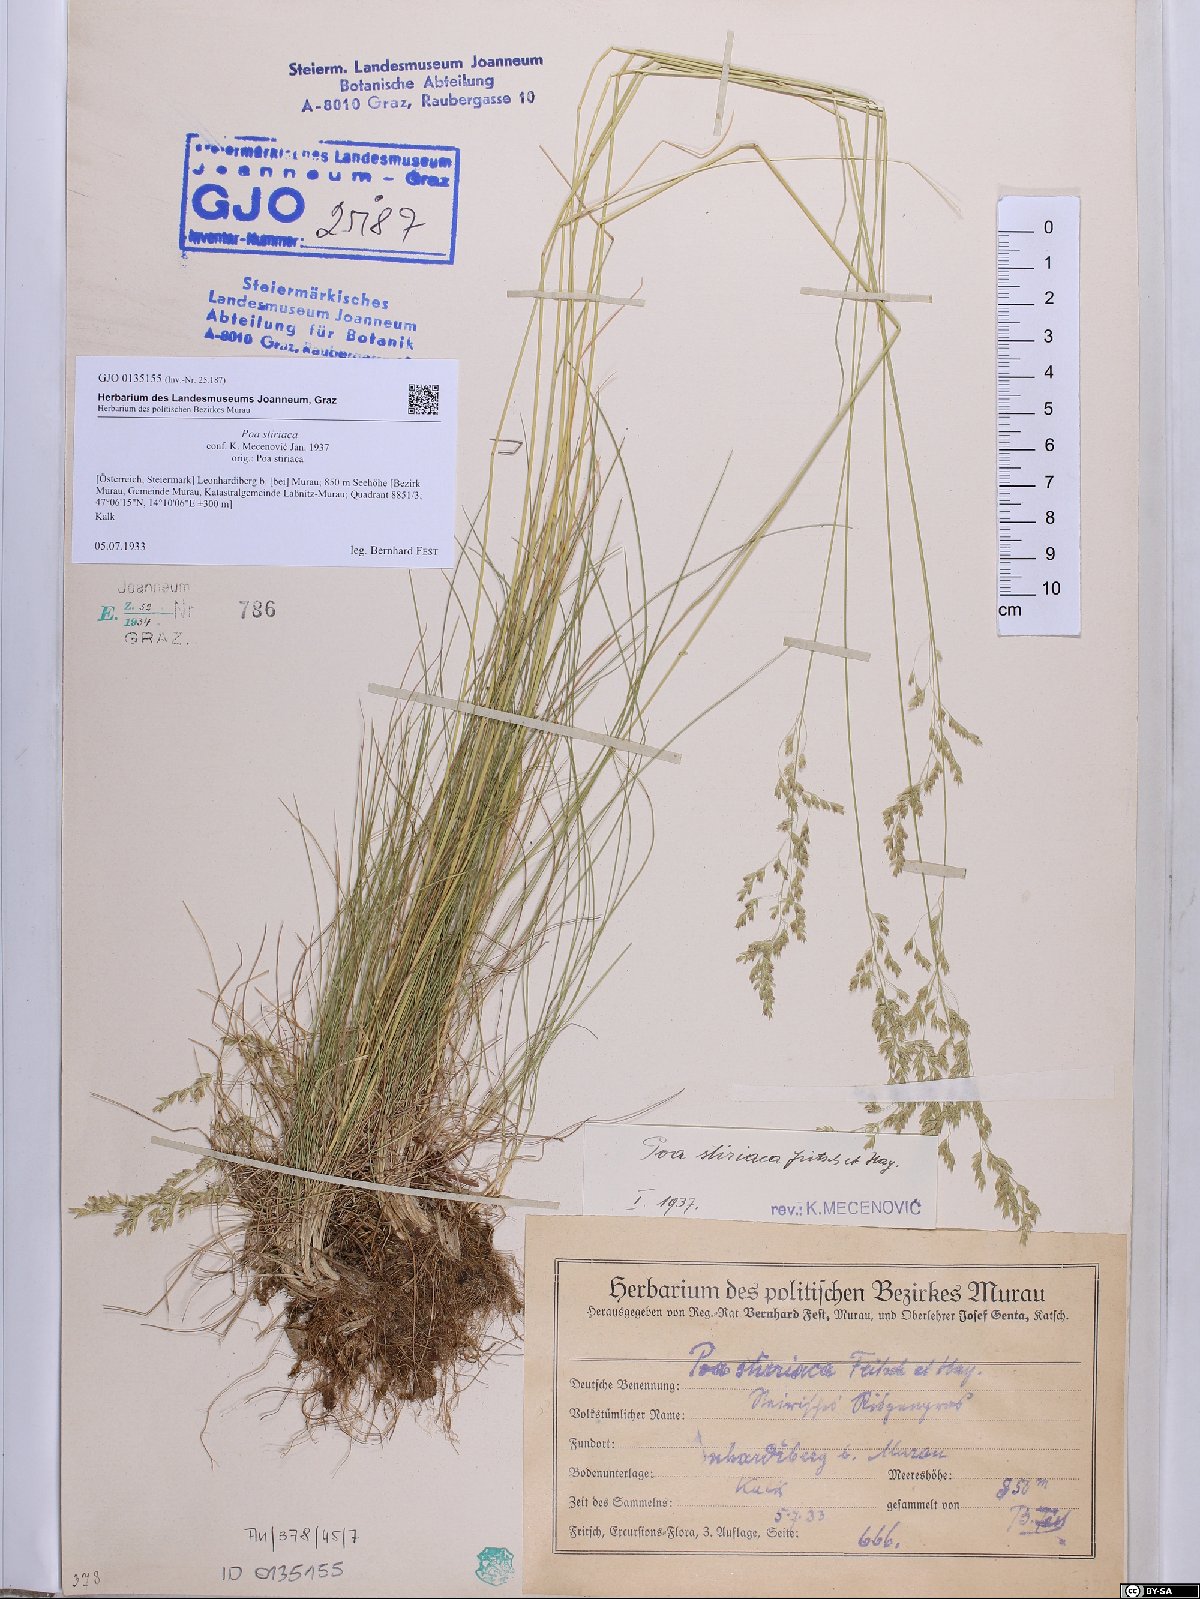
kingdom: Plantae
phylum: Tracheophyta
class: Liliopsida
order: Poales
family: Poaceae
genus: Poa
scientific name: Poa stiriaca
